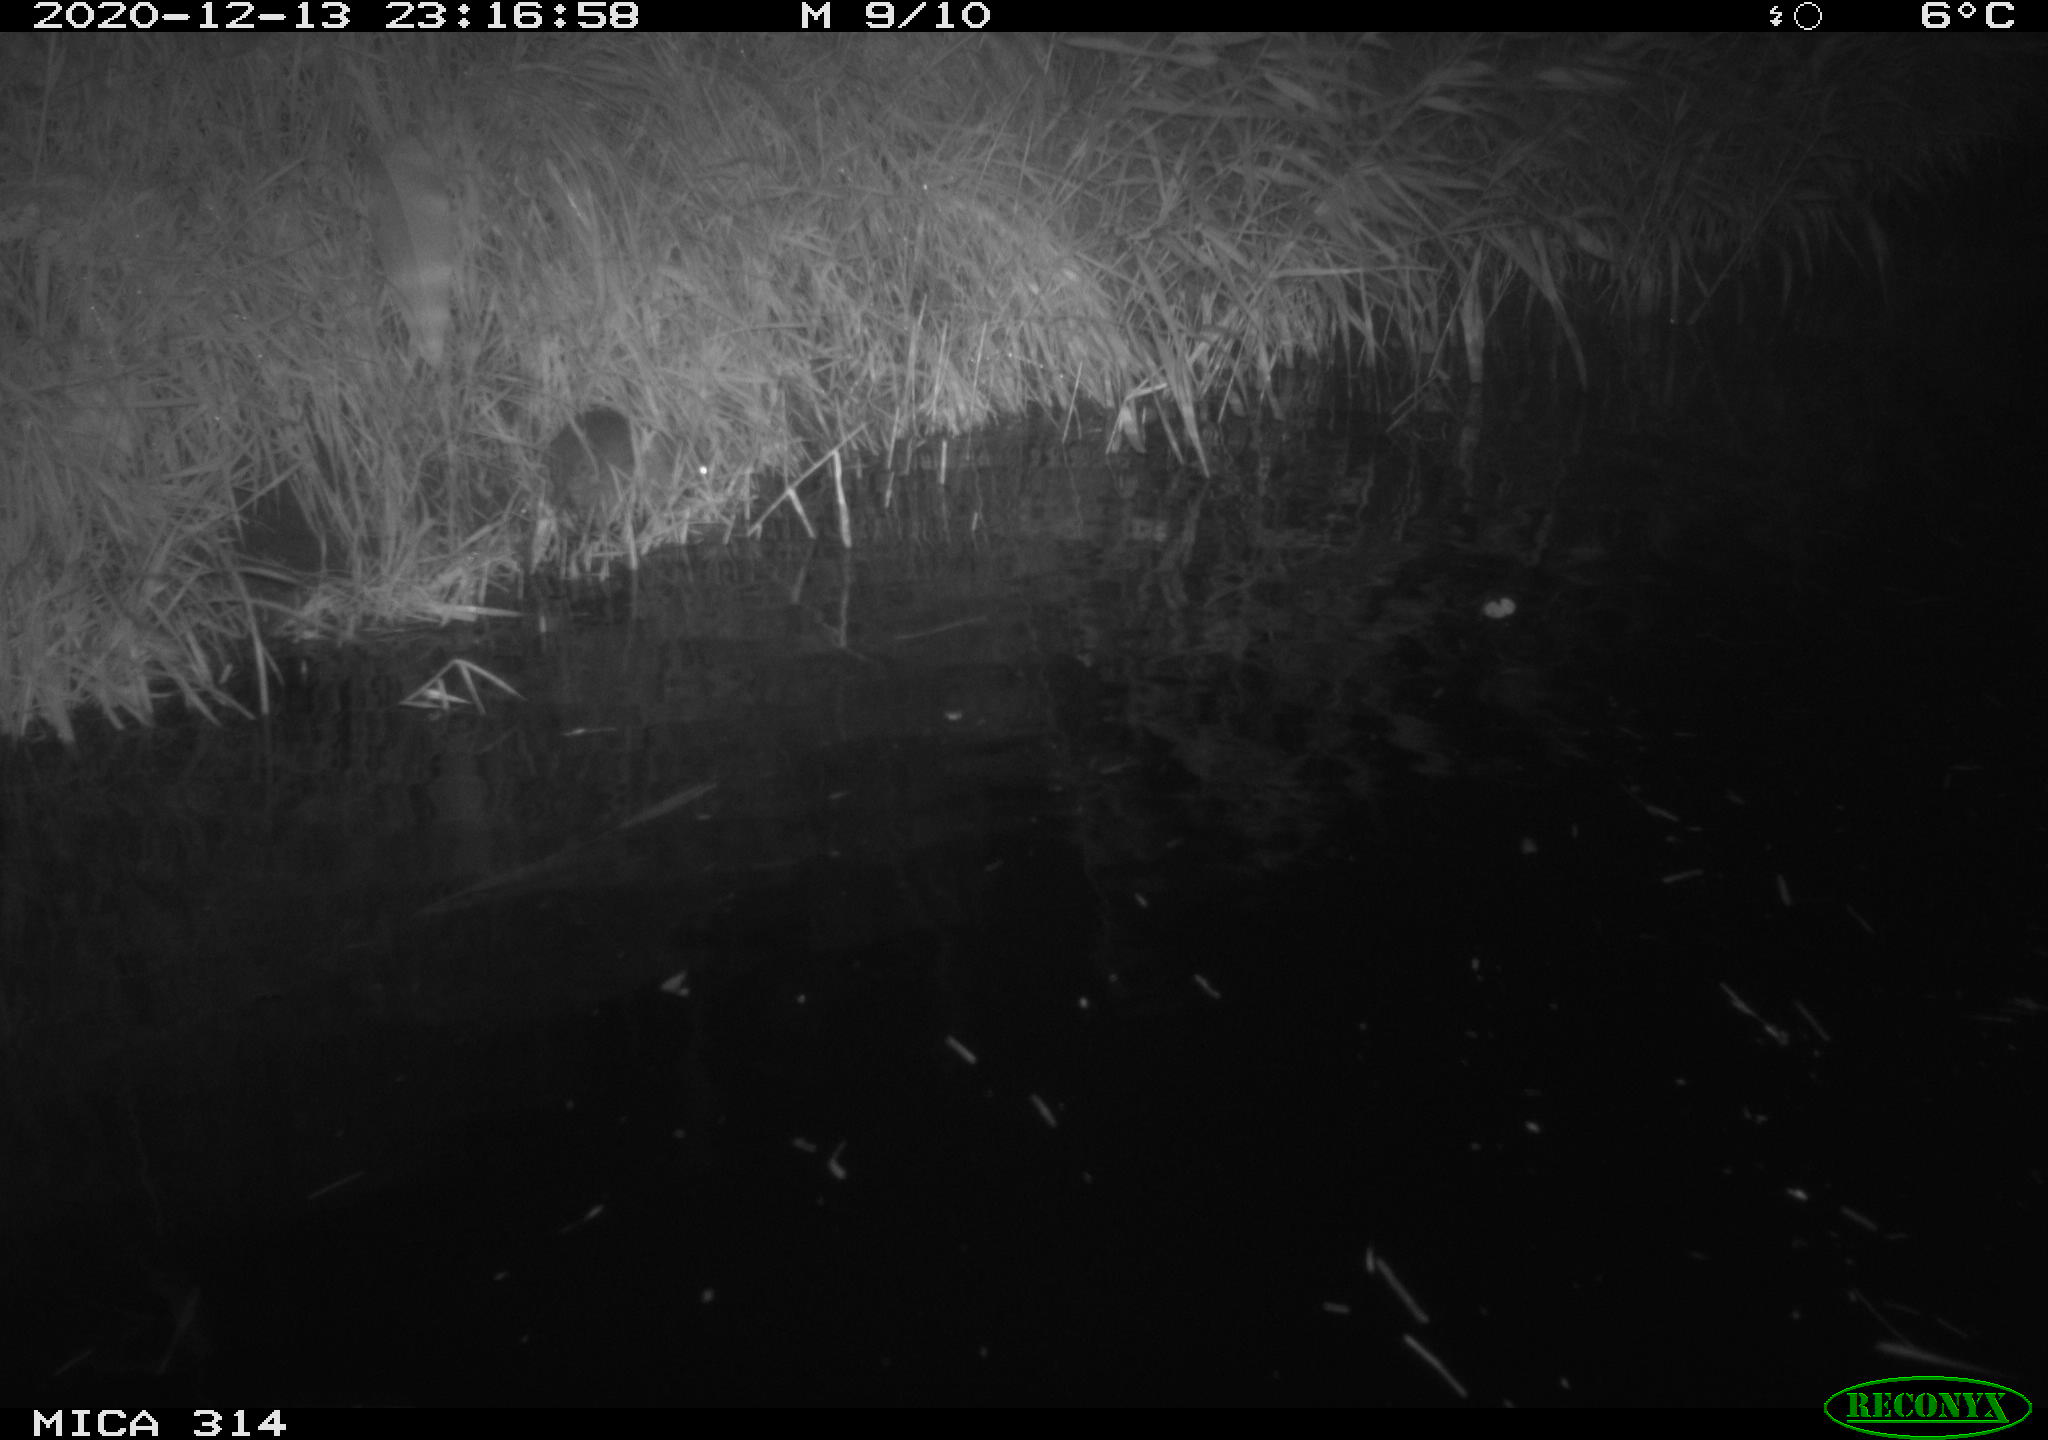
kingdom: Animalia
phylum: Chordata
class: Mammalia
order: Rodentia
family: Muridae
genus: Rattus
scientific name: Rattus norvegicus
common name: Brown rat
